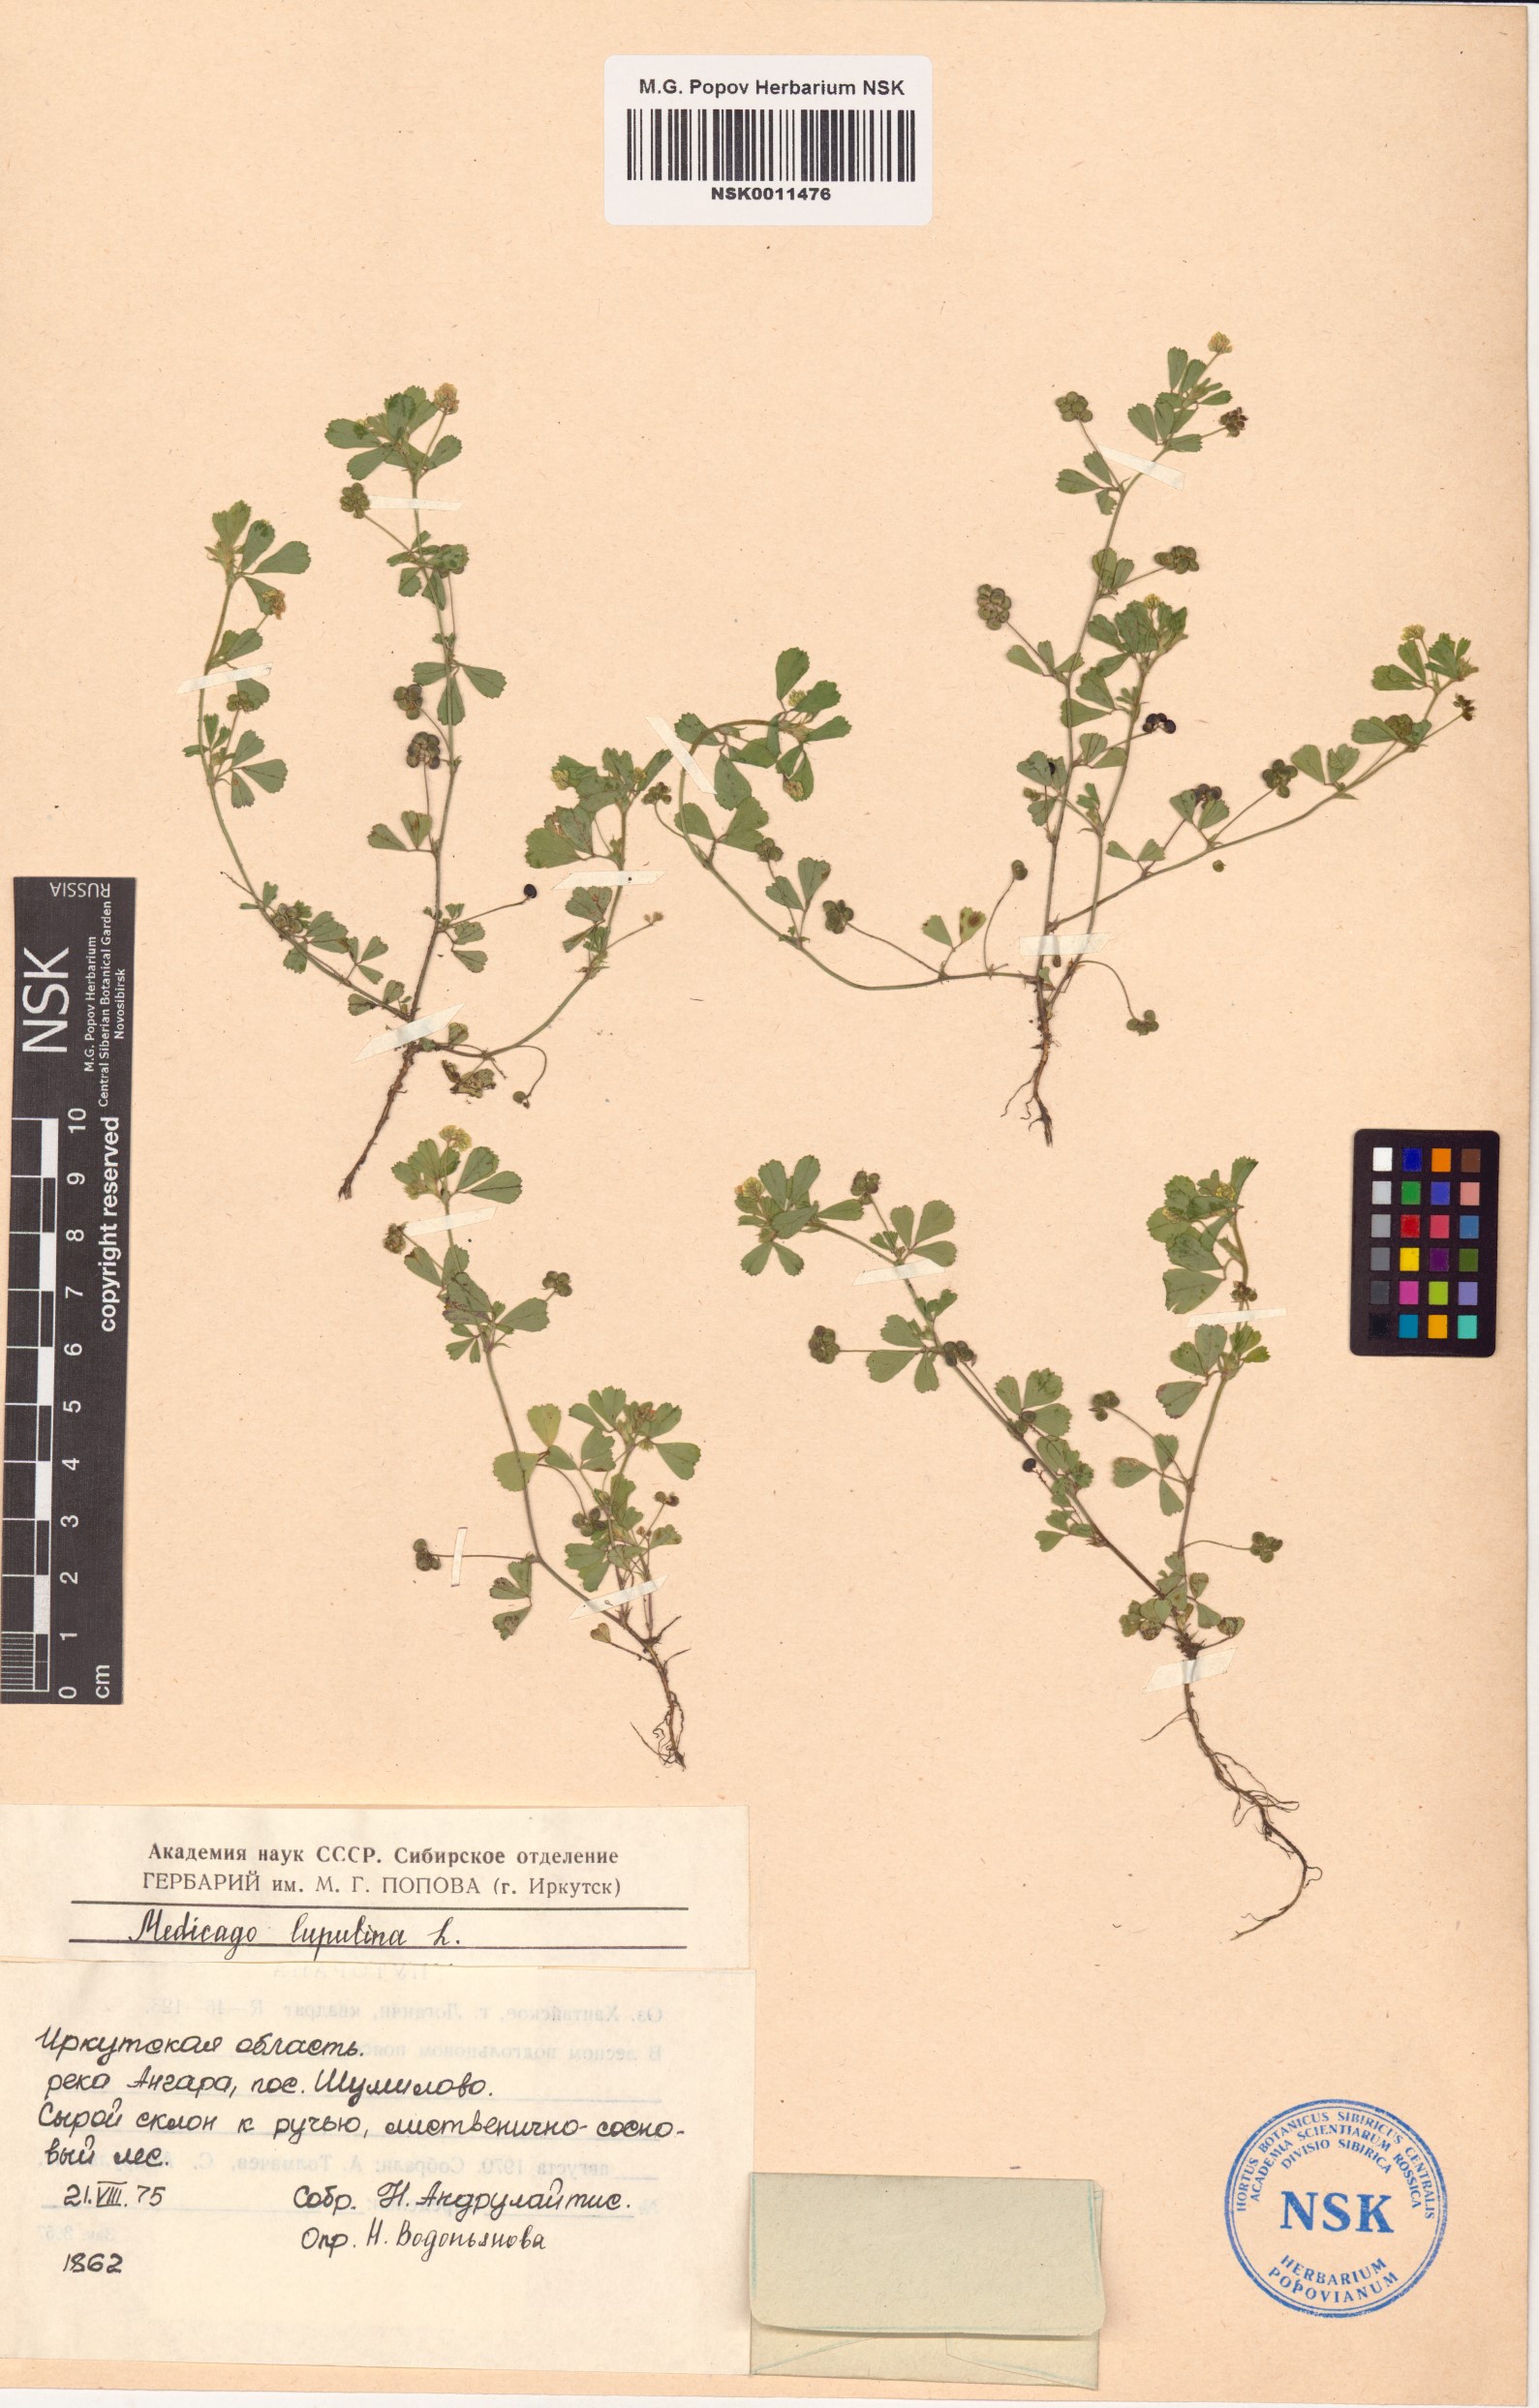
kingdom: Plantae
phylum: Tracheophyta
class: Magnoliopsida
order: Fabales
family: Fabaceae
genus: Medicago
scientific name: Medicago lupulina
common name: Black medick
